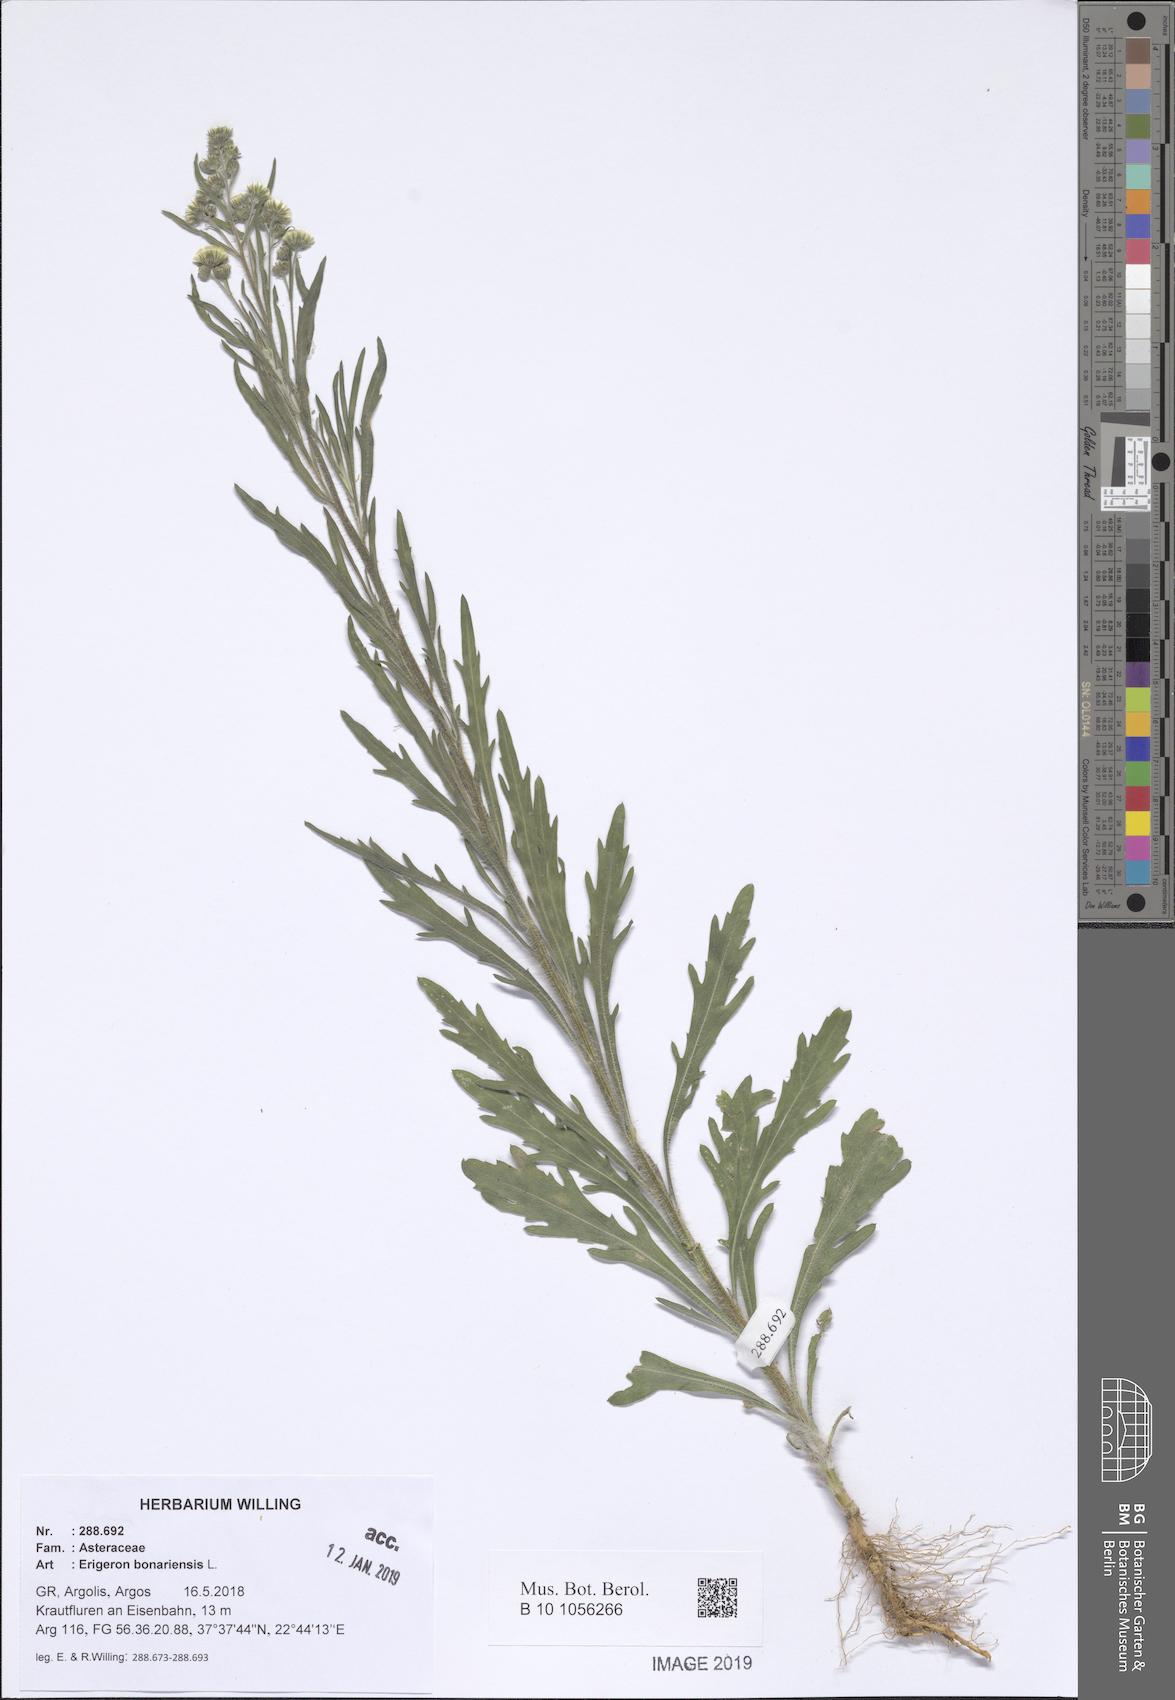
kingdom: Plantae
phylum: Tracheophyta
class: Magnoliopsida
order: Asterales
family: Asteraceae
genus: Erigeron
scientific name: Erigeron bonariensis
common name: Argentine fleabane
